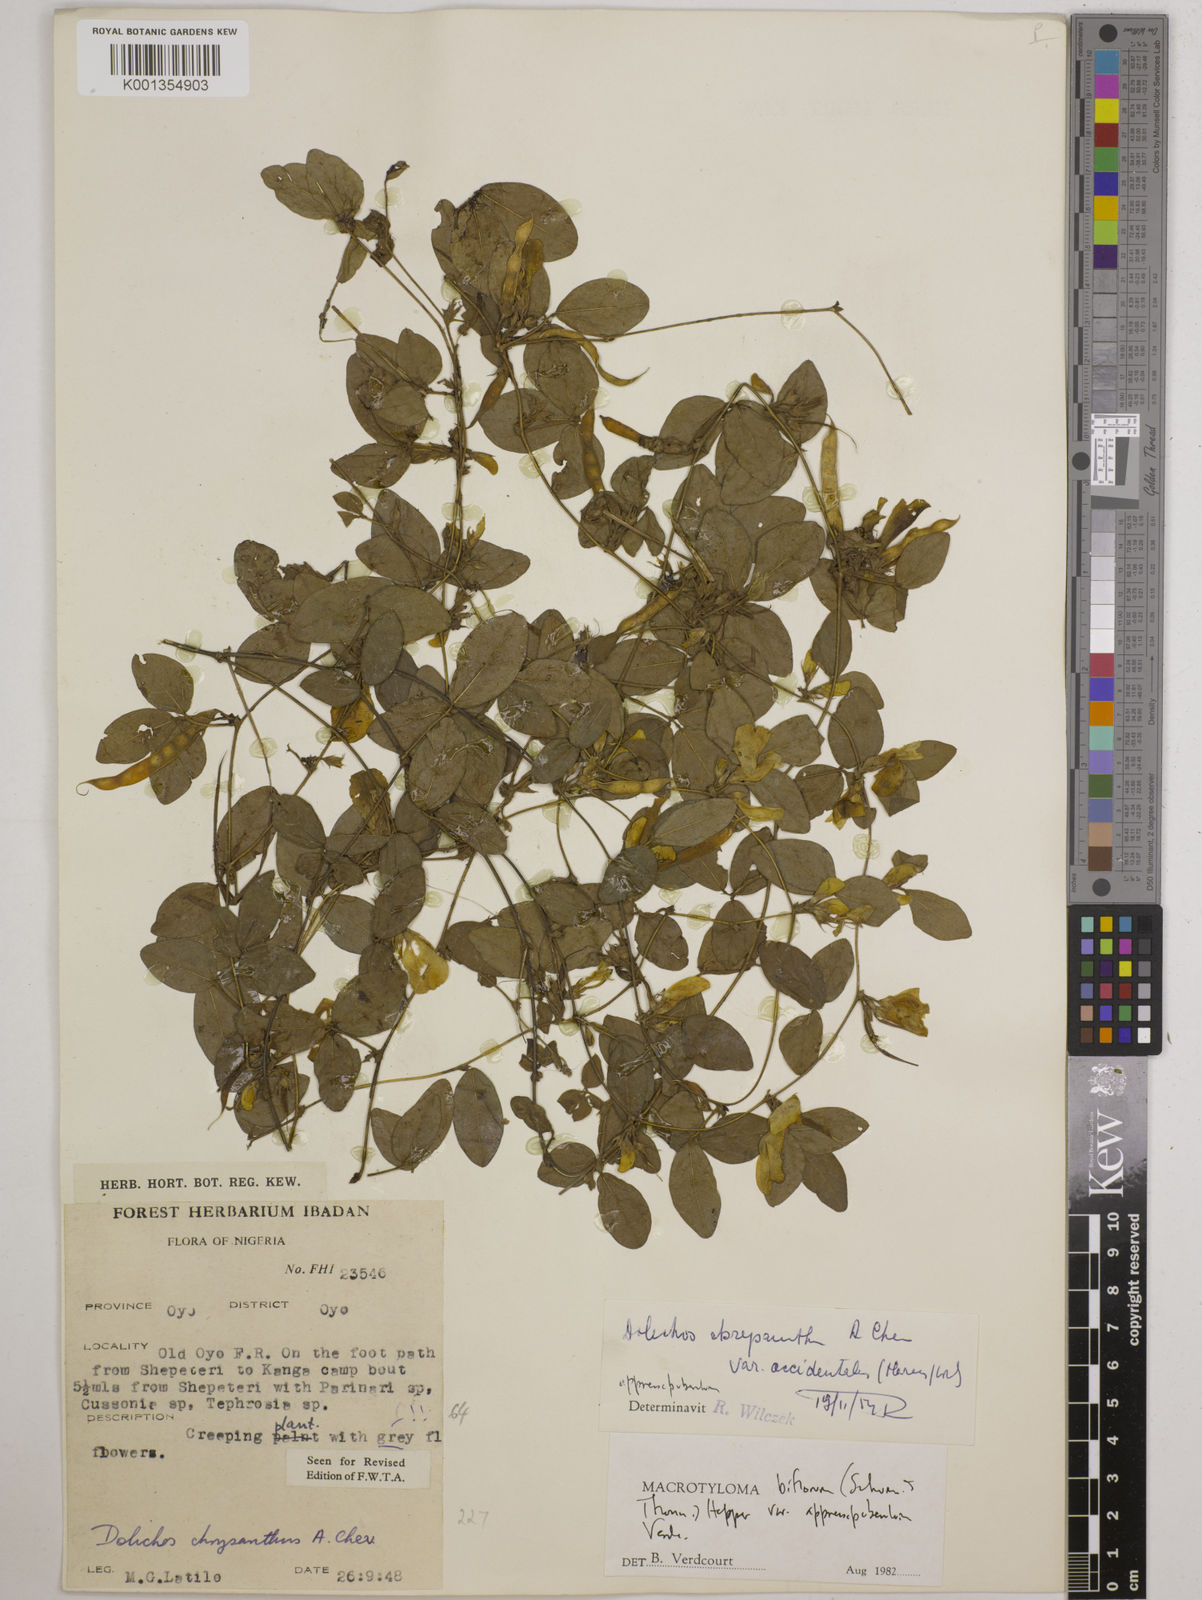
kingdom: Plantae
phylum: Tracheophyta
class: Magnoliopsida
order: Fabales
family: Fabaceae
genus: Macrotyloma
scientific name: Macrotyloma biflorum
